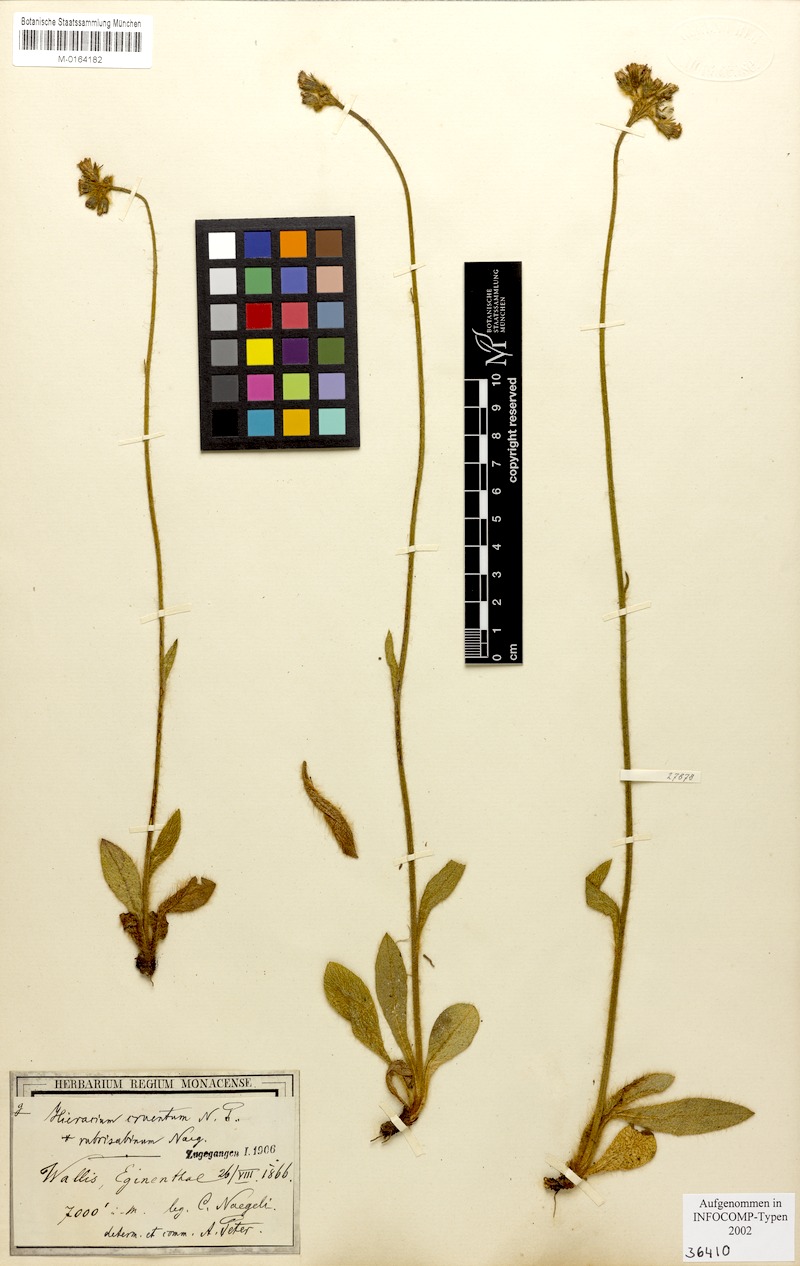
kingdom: Plantae
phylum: Tracheophyta
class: Magnoliopsida
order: Asterales
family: Asteraceae
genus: Pilosella
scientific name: Pilosella guthnikiana
